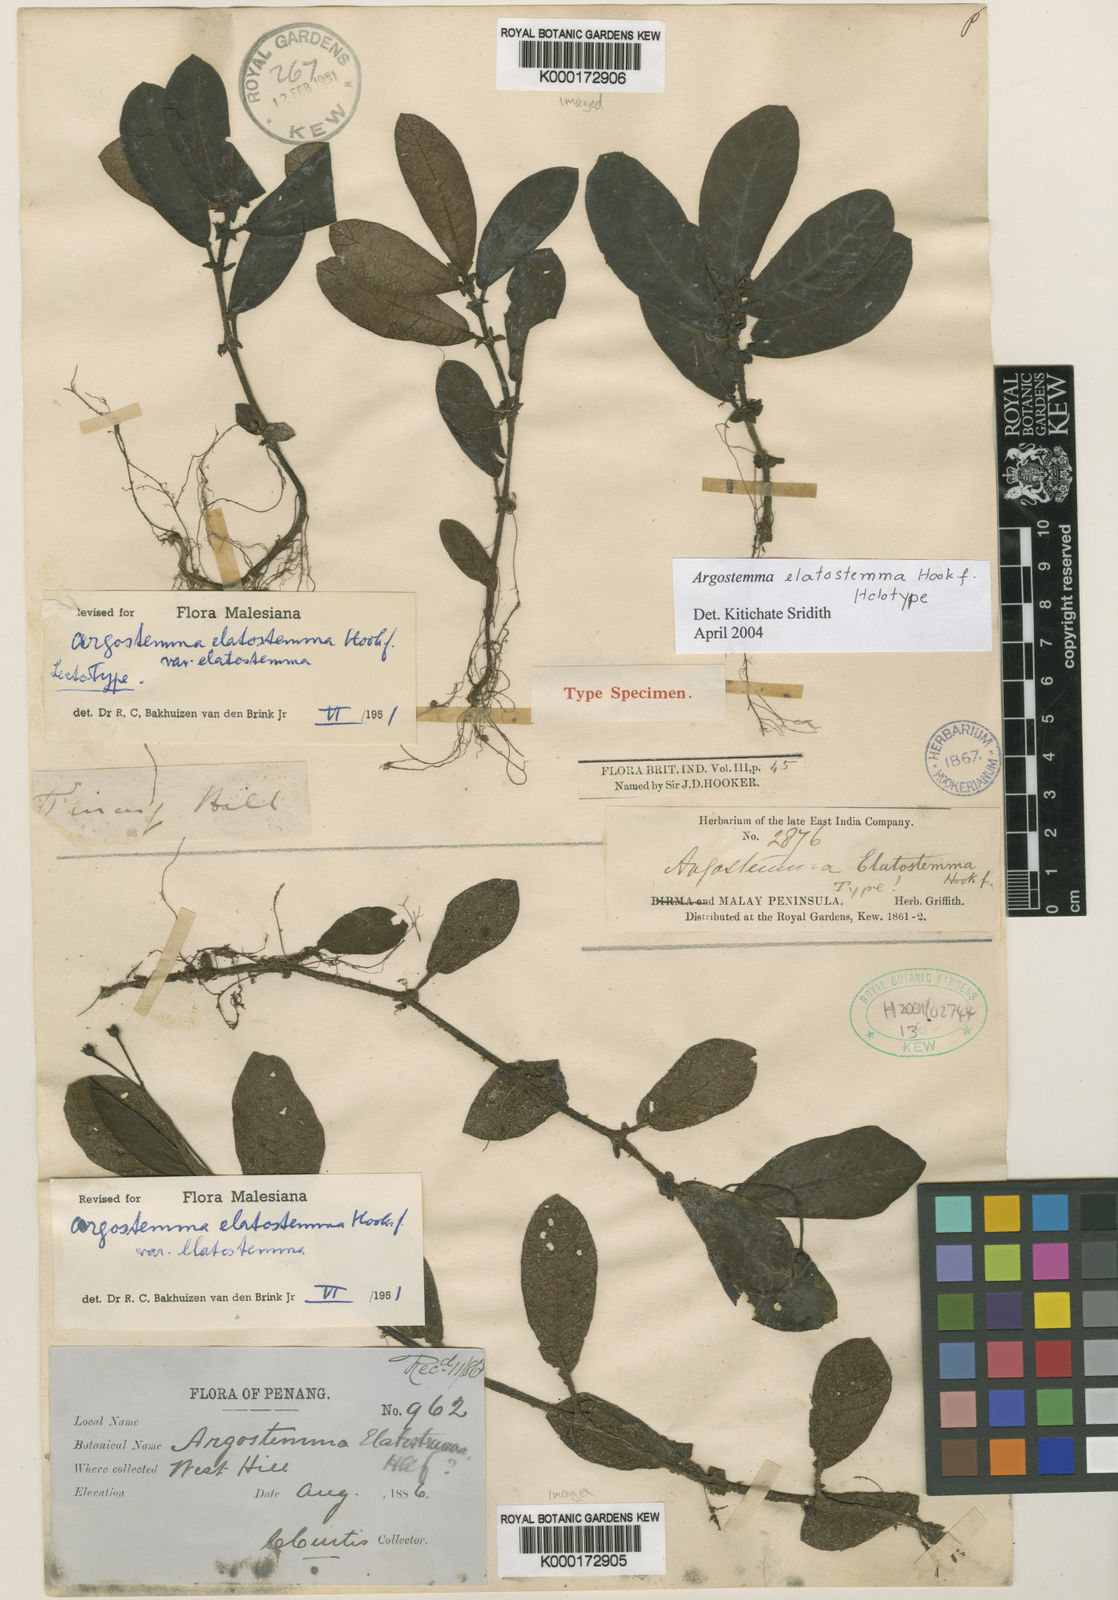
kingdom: Plantae
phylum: Tracheophyta
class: Magnoliopsida
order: Gentianales
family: Rubiaceae
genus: Argostemma
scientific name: Argostemma elatostemma
